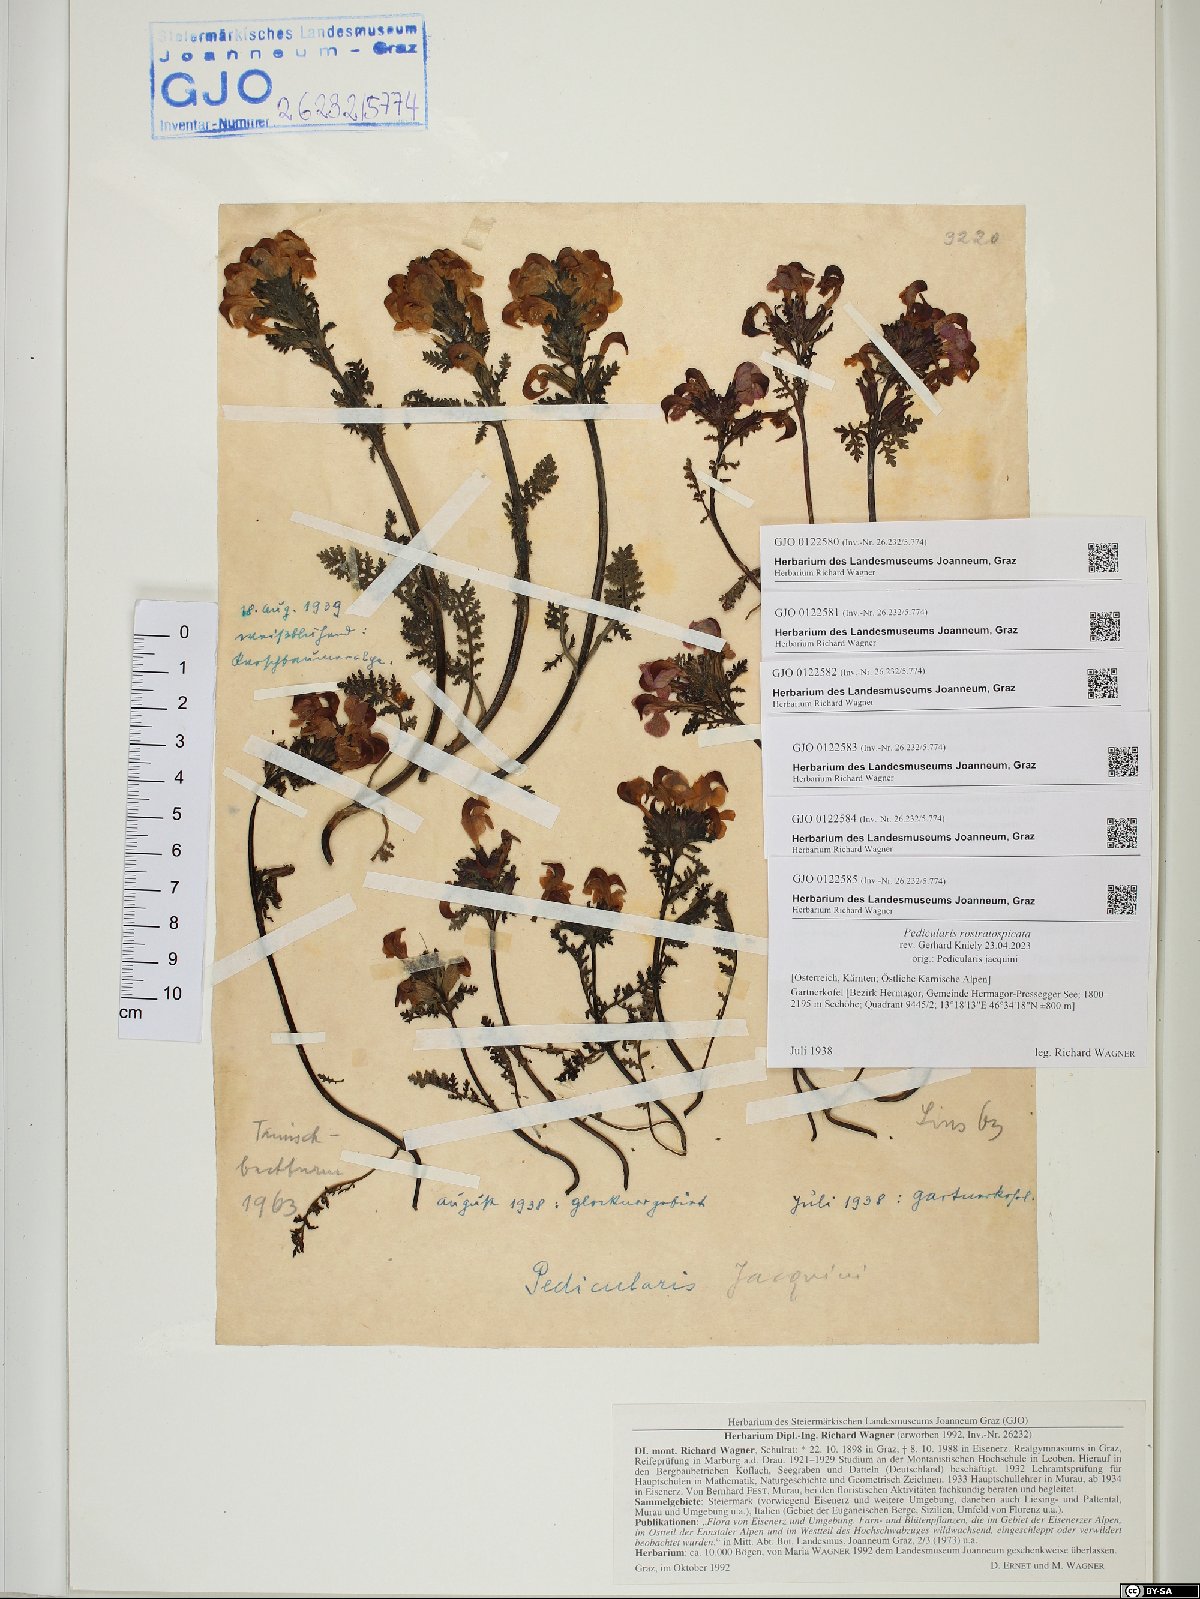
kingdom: Plantae
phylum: Tracheophyta
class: Magnoliopsida
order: Lamiales
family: Orobanchaceae
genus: Pedicularis
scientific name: Pedicularis rostratocapitata
